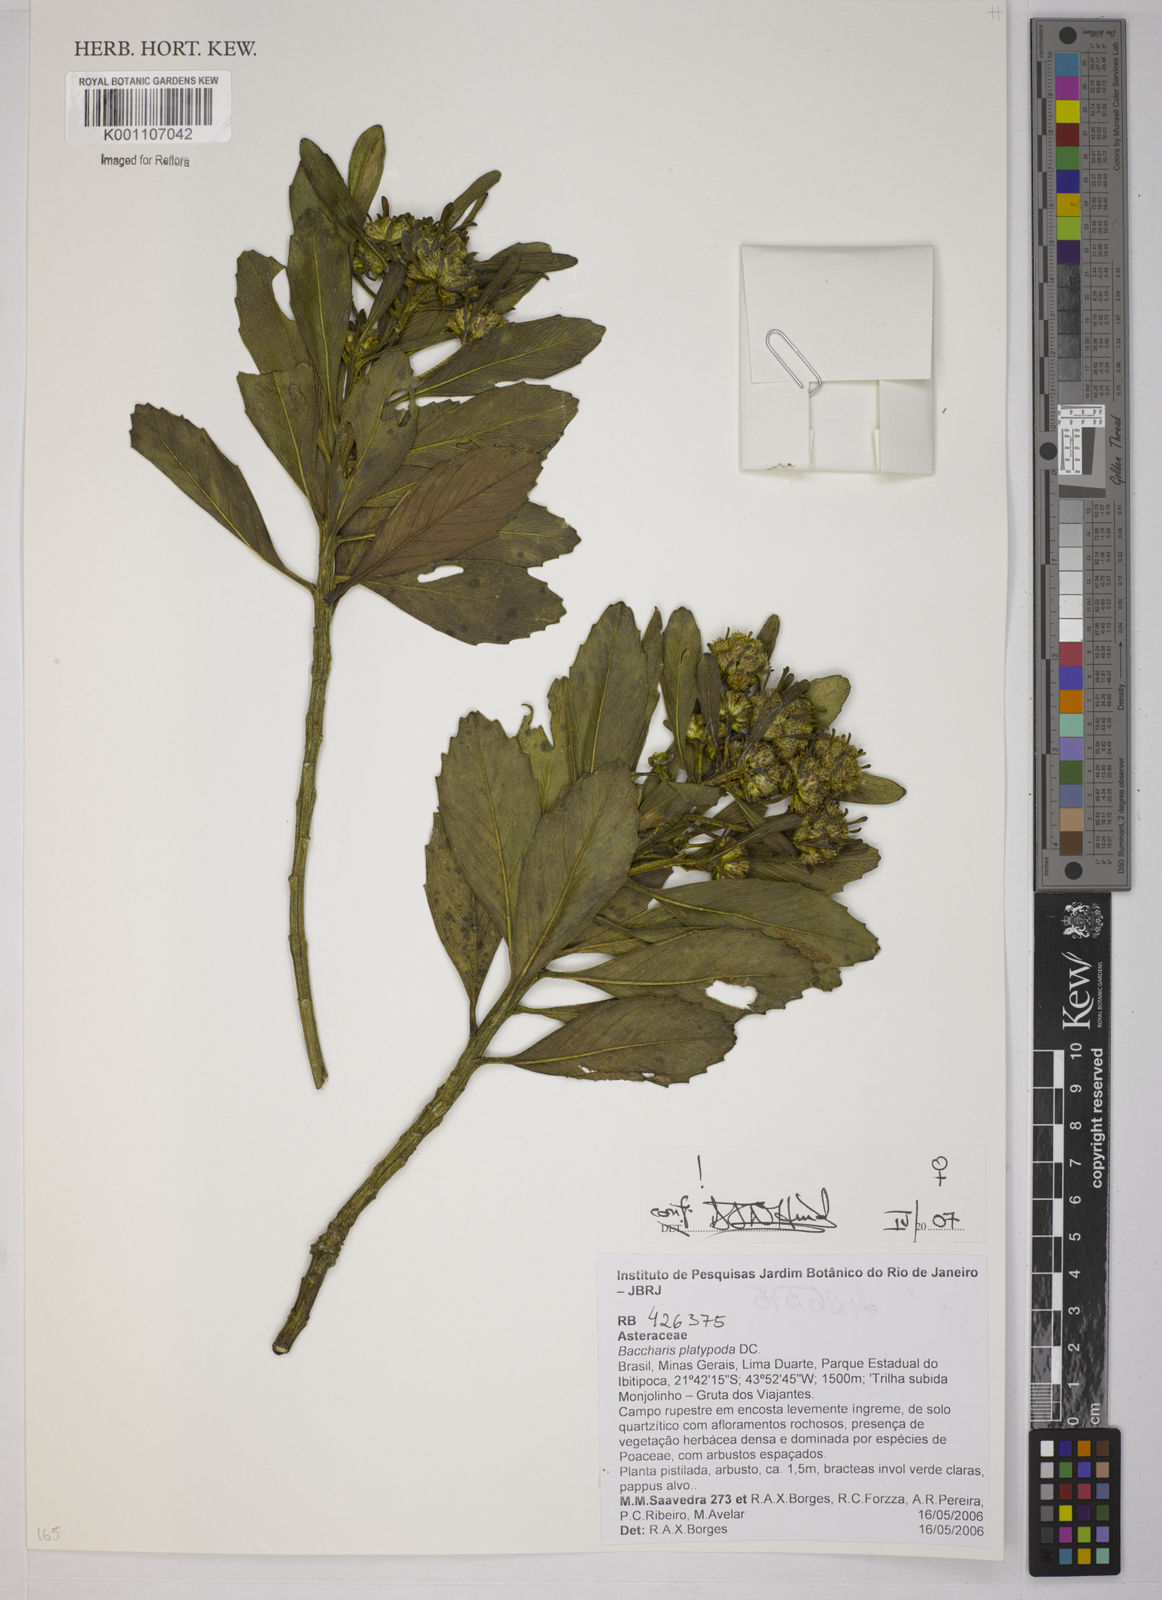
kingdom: Plantae
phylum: Tracheophyta
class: Magnoliopsida
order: Asterales
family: Asteraceae
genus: Baccharis
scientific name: Baccharis platypoda
